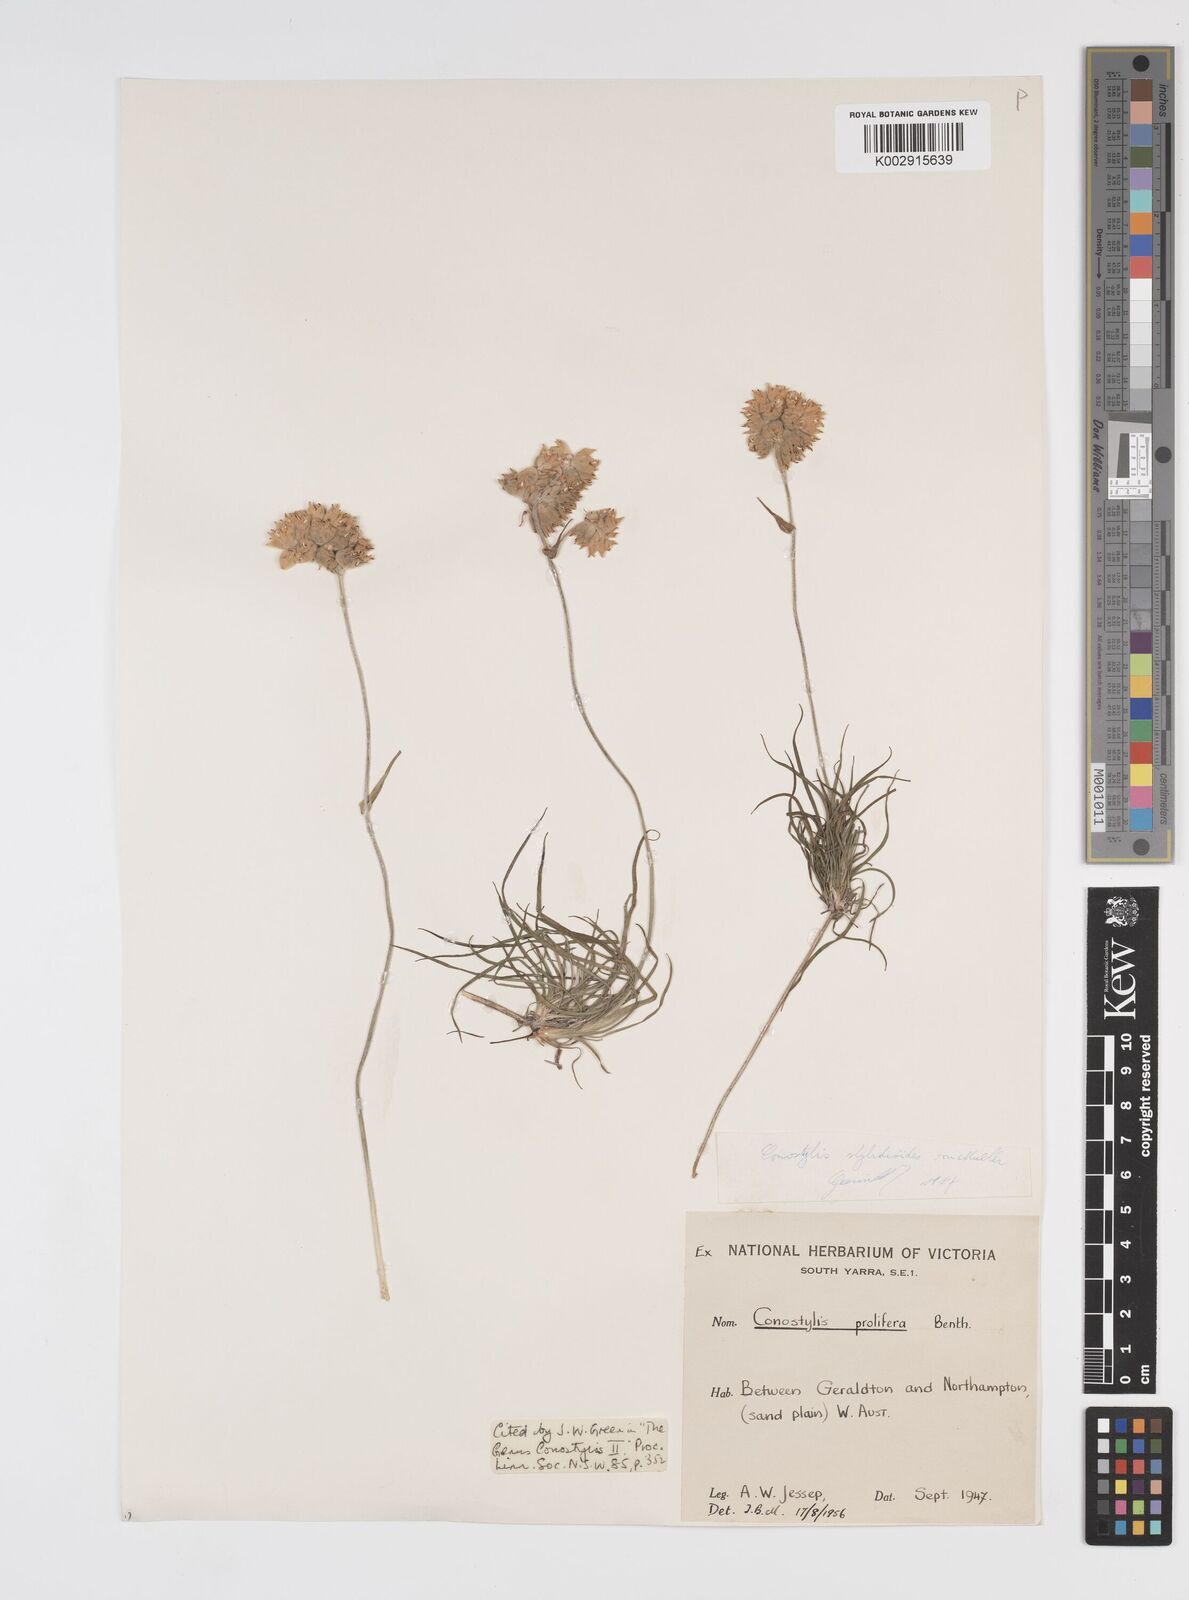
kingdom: Plantae
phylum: Tracheophyta
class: Liliopsida
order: Commelinales
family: Haemodoraceae
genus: Conostylis
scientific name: Conostylis stylidioides
